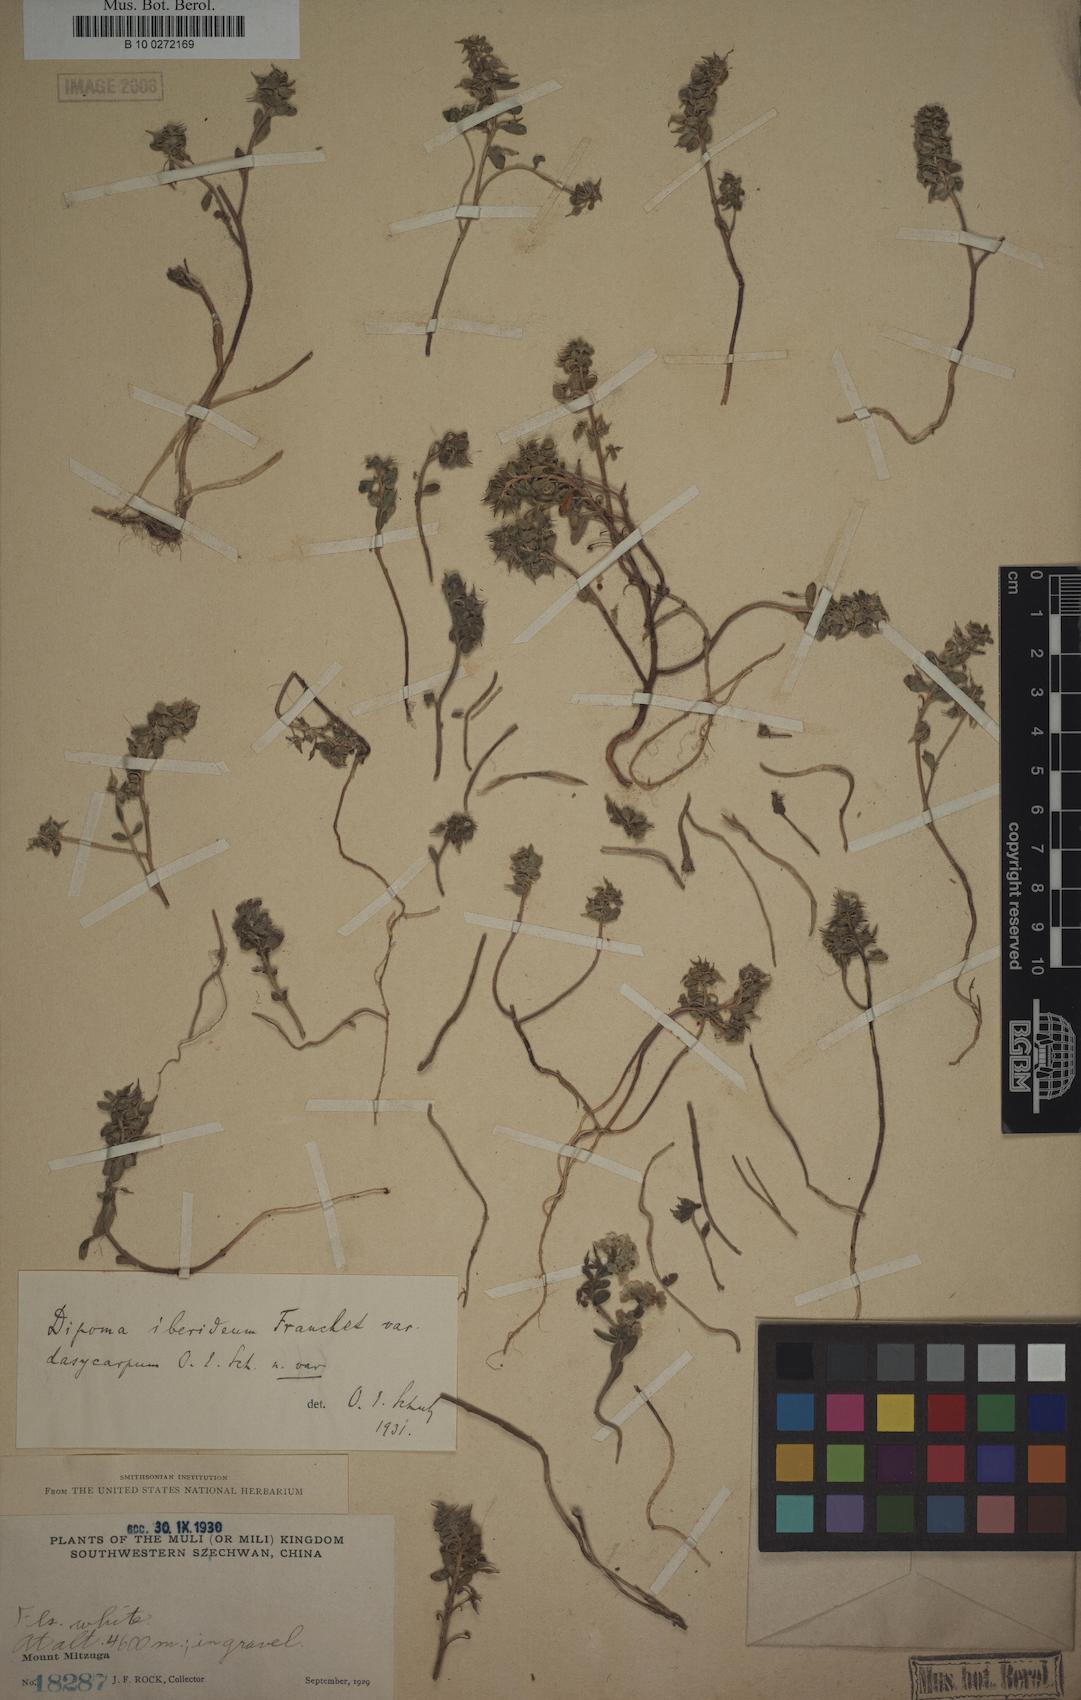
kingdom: Plantae
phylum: Tracheophyta
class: Magnoliopsida
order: Brassicales
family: Brassicaceae
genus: Dipoma
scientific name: Dipoma iberideum
